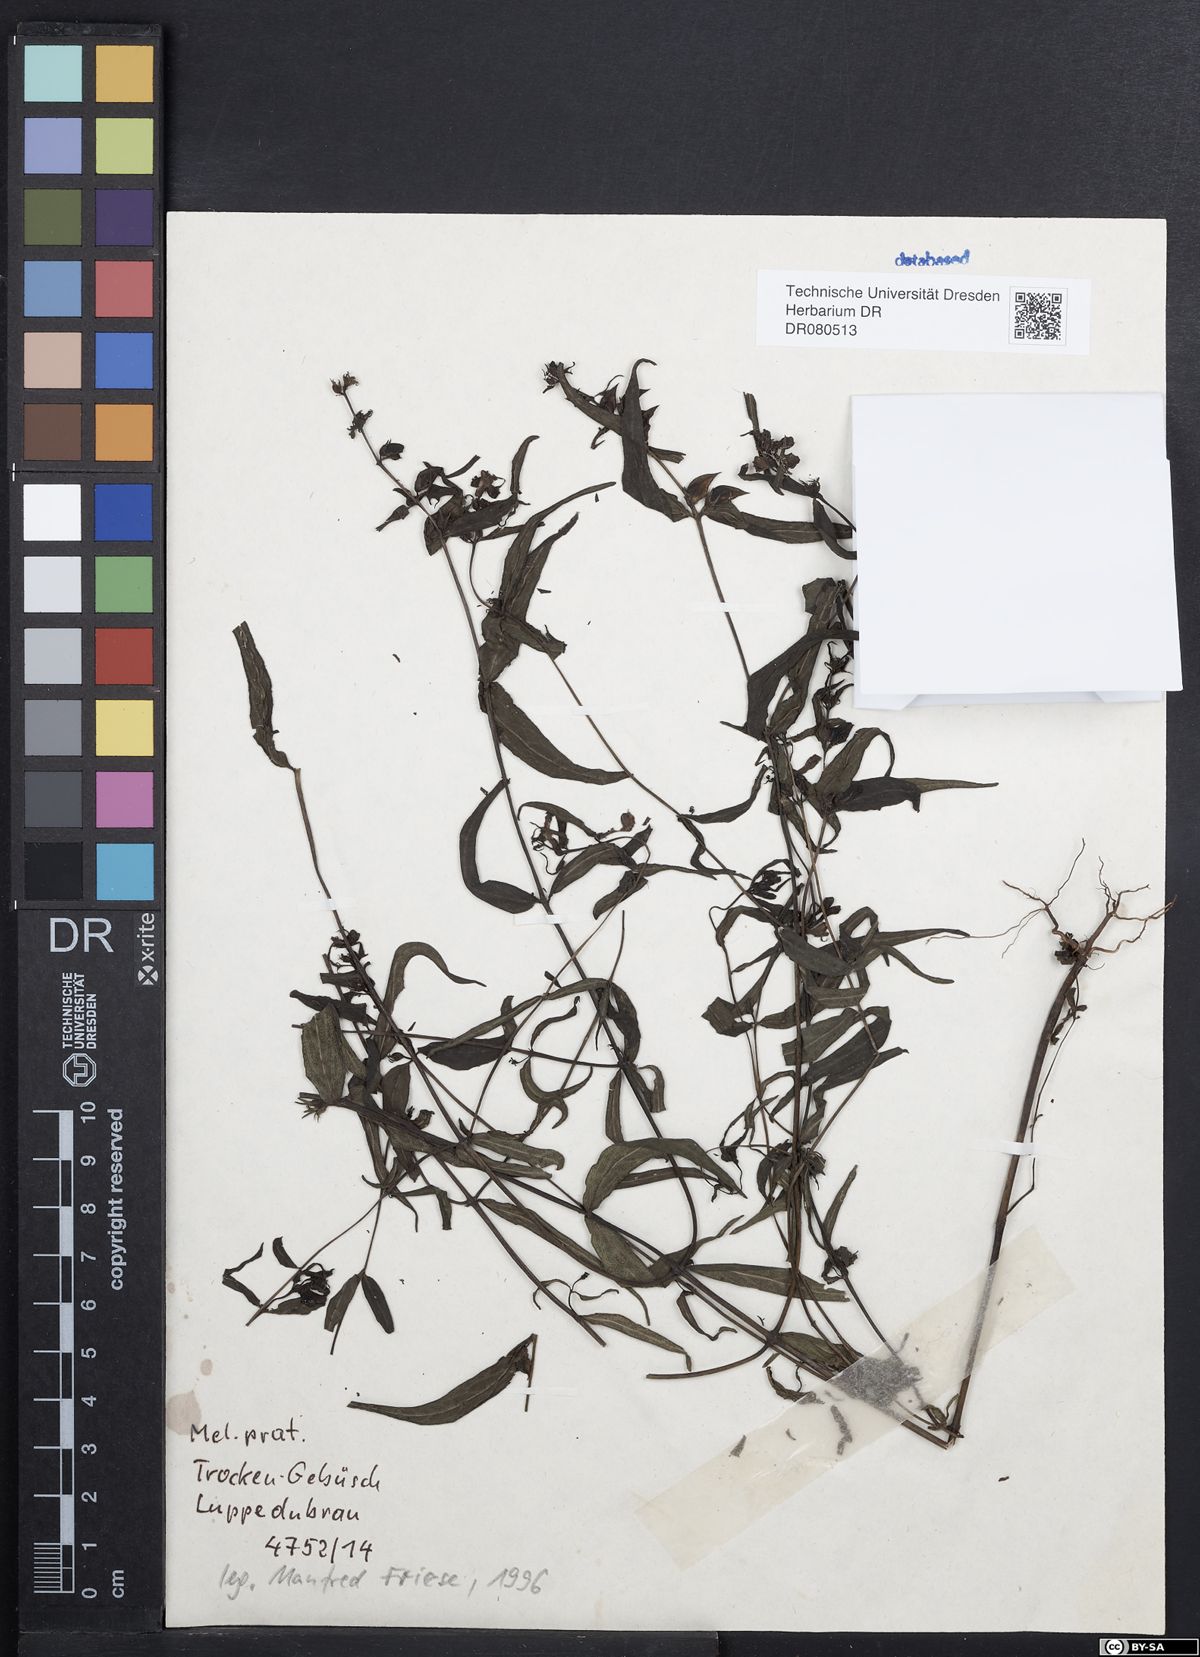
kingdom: Plantae
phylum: Tracheophyta
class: Magnoliopsida
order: Lamiales
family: Orobanchaceae
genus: Melampyrum
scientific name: Melampyrum pratense
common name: Common cow-wheat
